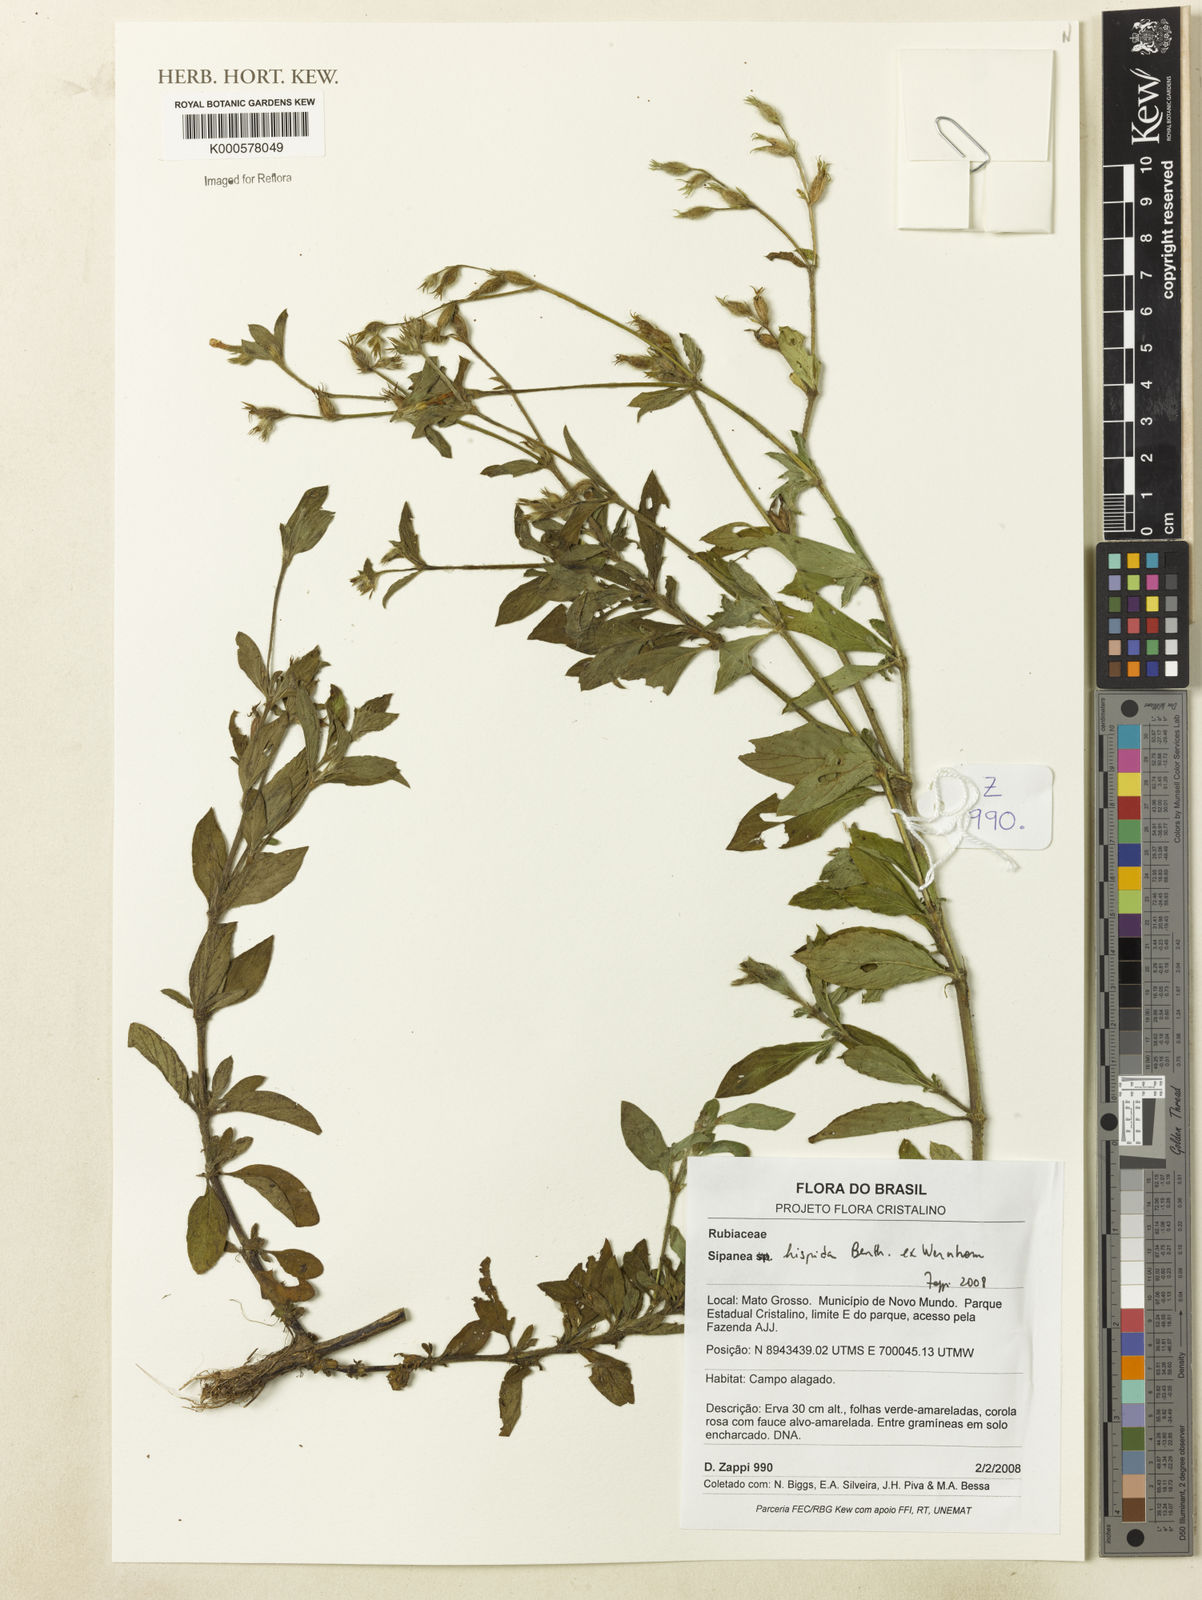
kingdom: Plantae
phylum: Tracheophyta
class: Magnoliopsida
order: Gentianales
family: Rubiaceae
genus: Sipanea
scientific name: Sipanea hispida
